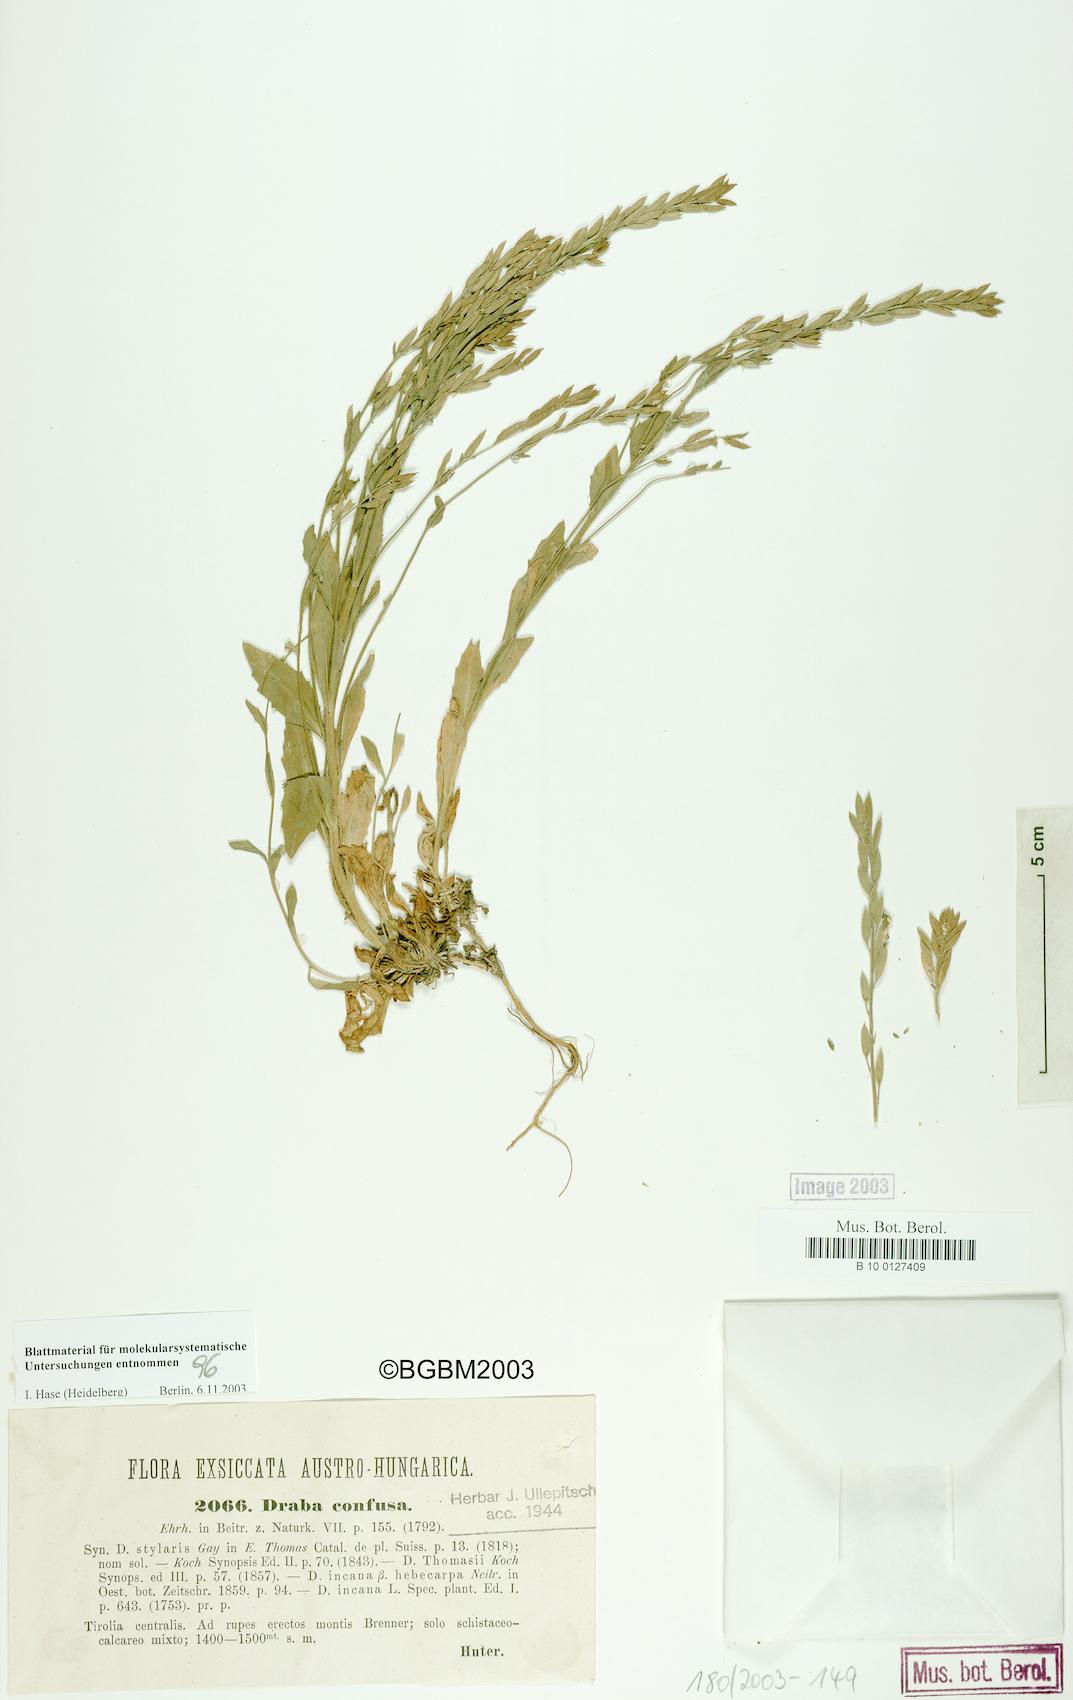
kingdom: Plantae
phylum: Tracheophyta
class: Magnoliopsida
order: Brassicales
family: Brassicaceae
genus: Draba
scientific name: Draba incana
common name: Hoary whitlow-grass
